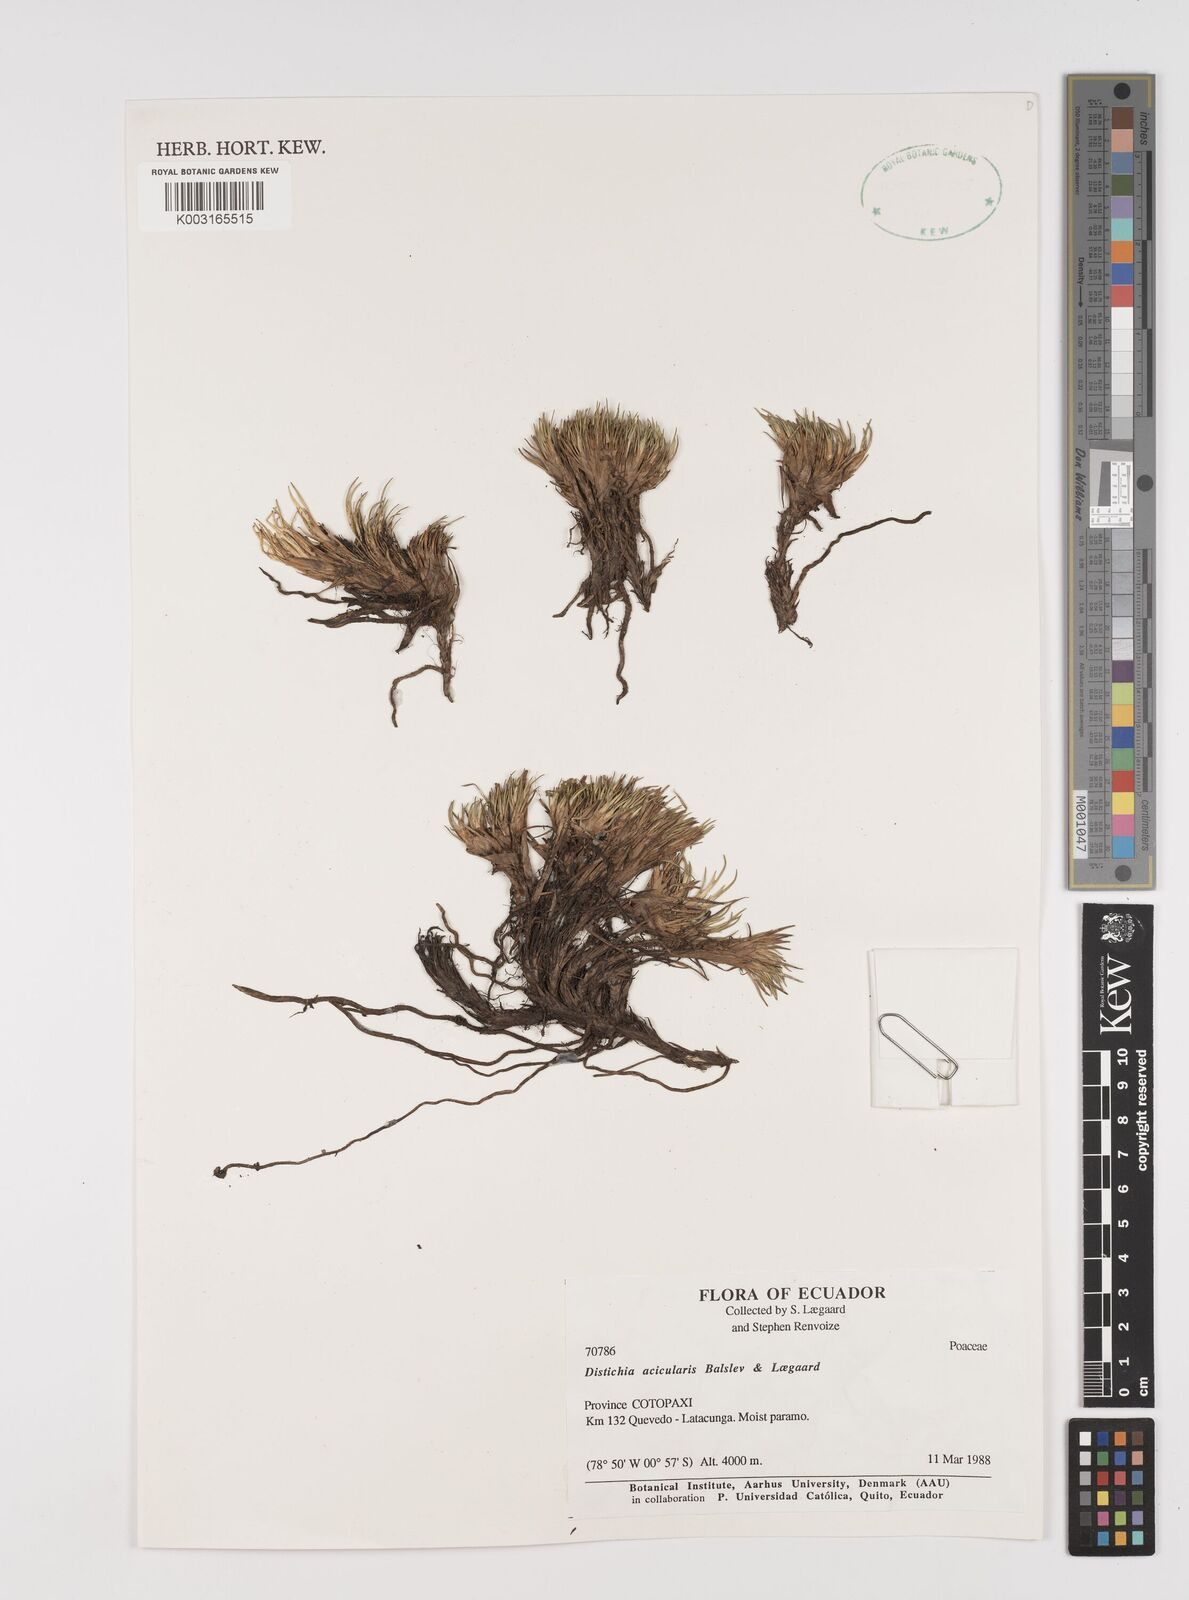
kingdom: Plantae
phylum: Tracheophyta
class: Liliopsida
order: Poales
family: Juncaceae
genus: Distichia
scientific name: Distichia acicularis
